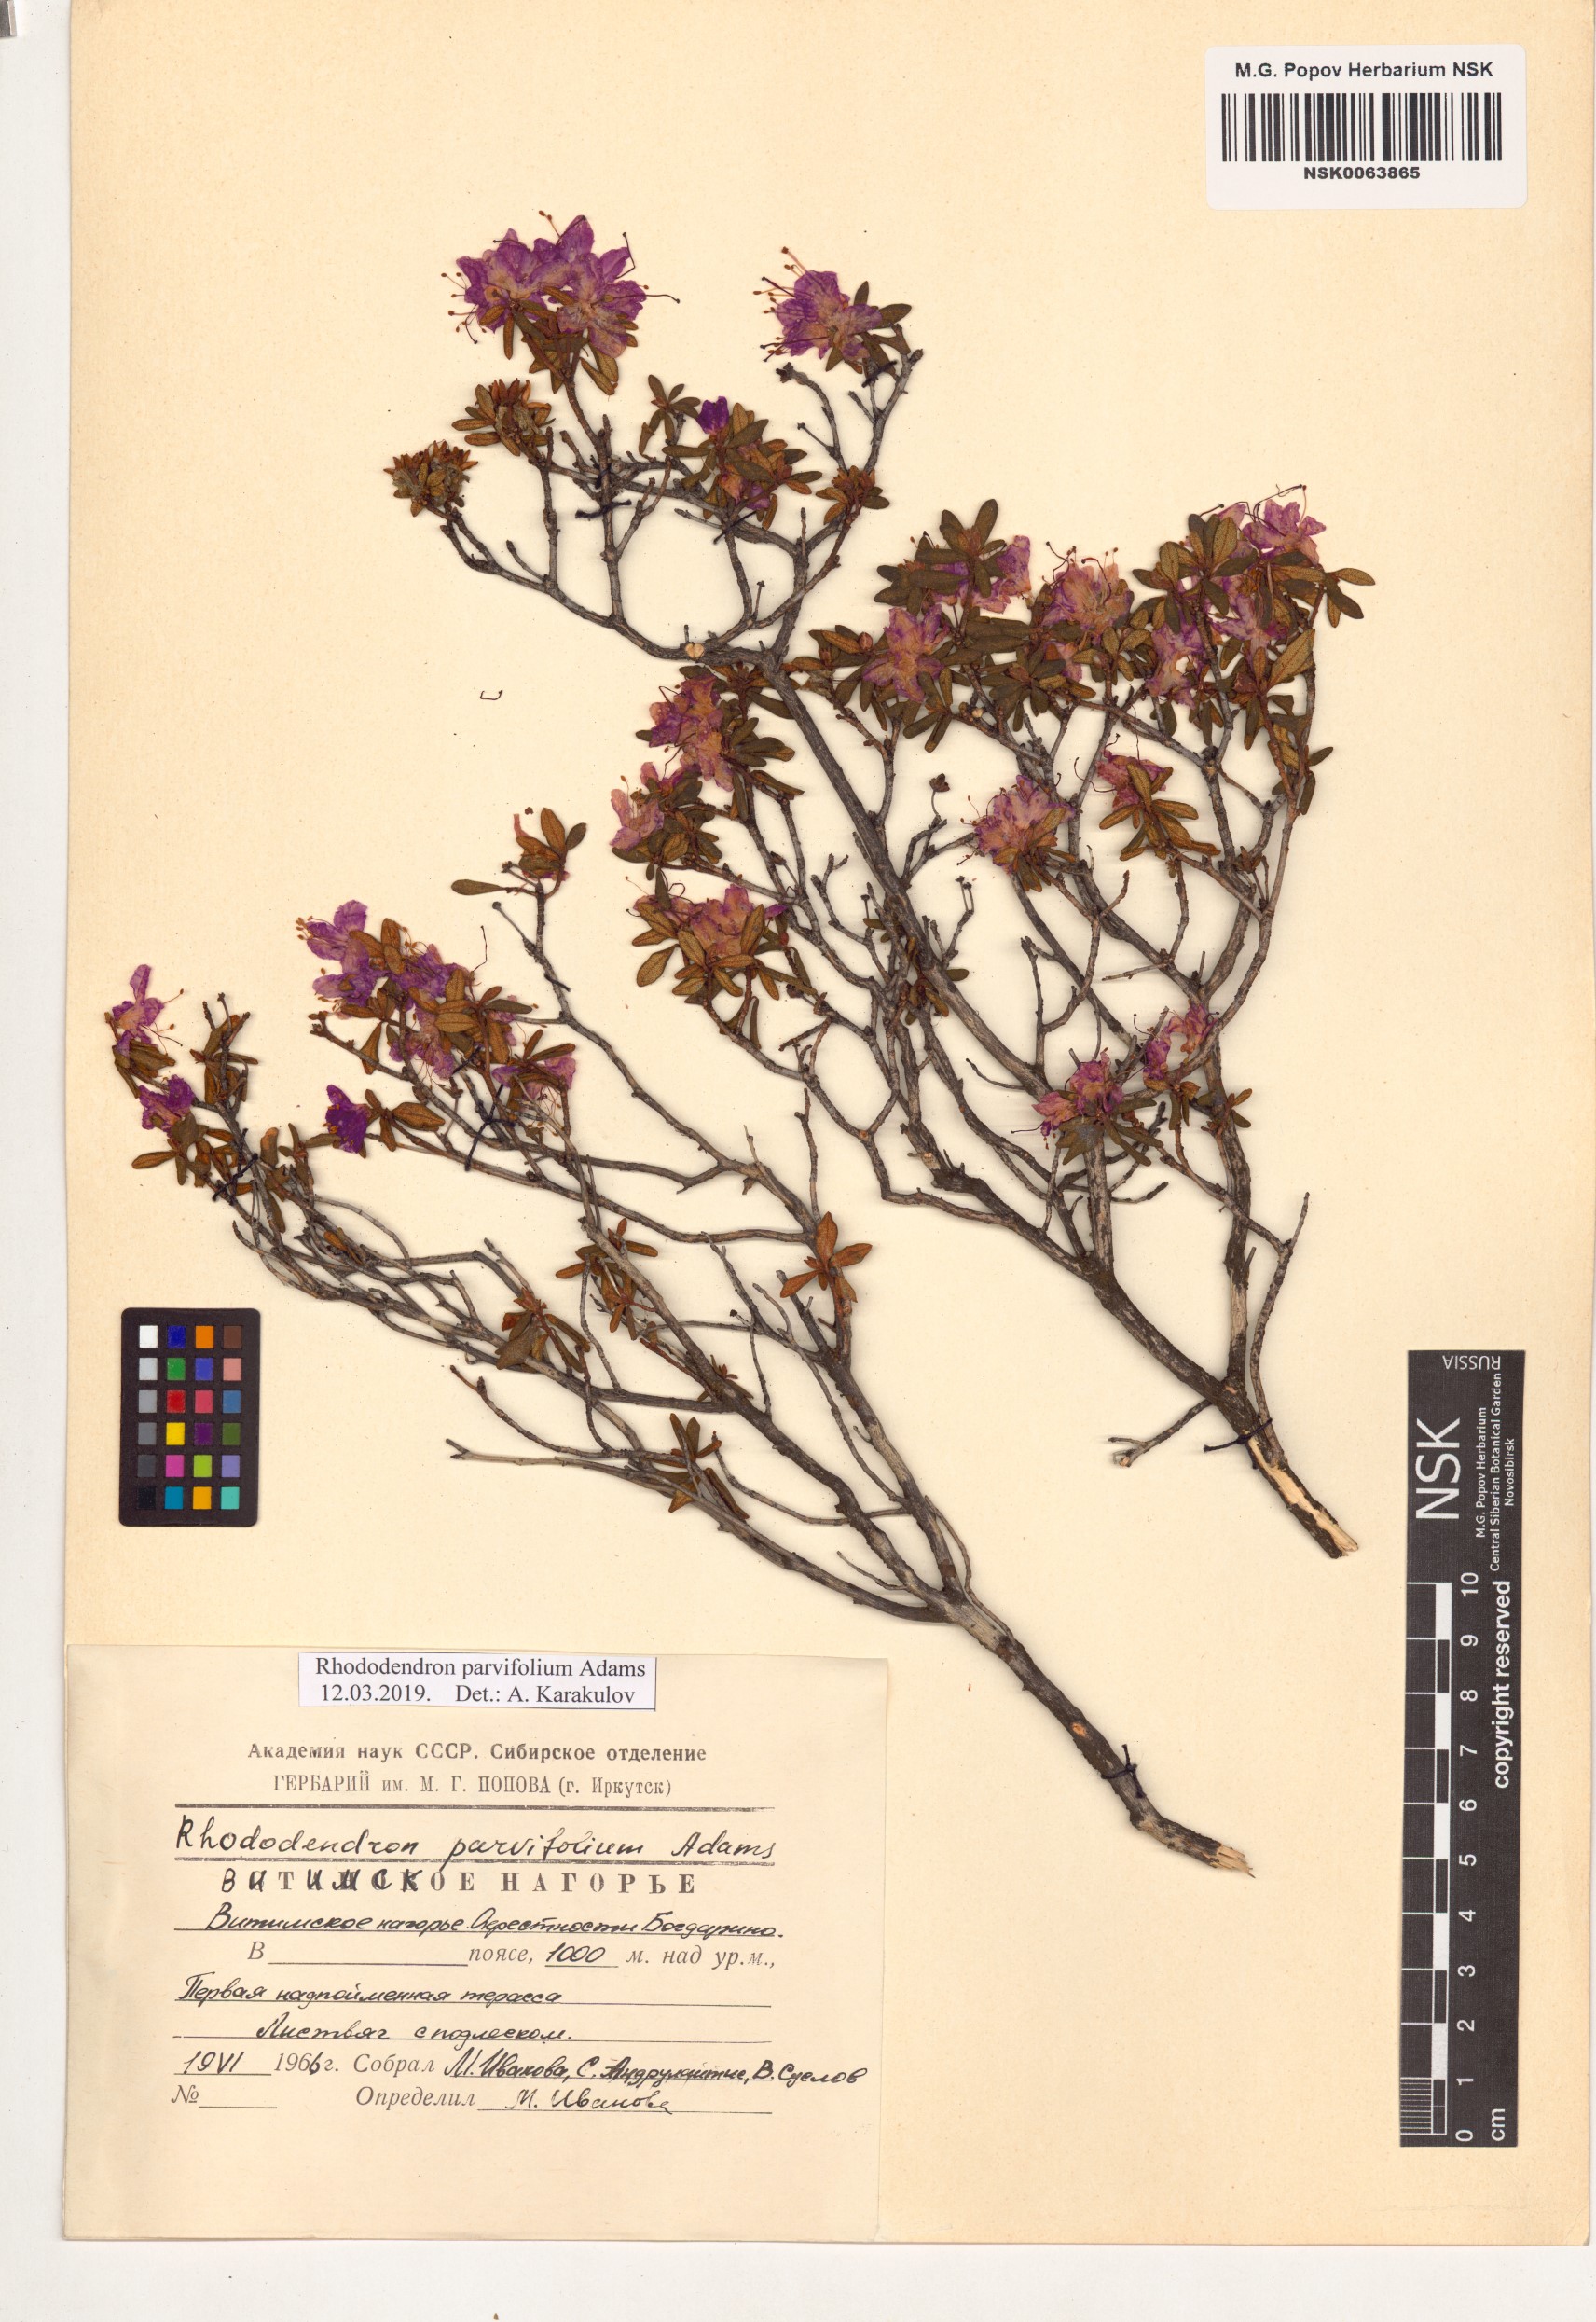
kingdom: Plantae
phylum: Tracheophyta
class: Magnoliopsida
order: Ericales
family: Ericaceae
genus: Rhododendron
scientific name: Rhododendron parvifolium
